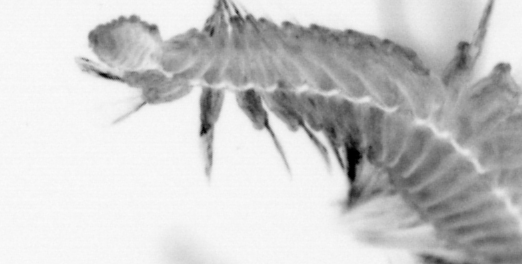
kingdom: Animalia
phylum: Annelida
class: Polychaeta
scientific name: Polychaeta
